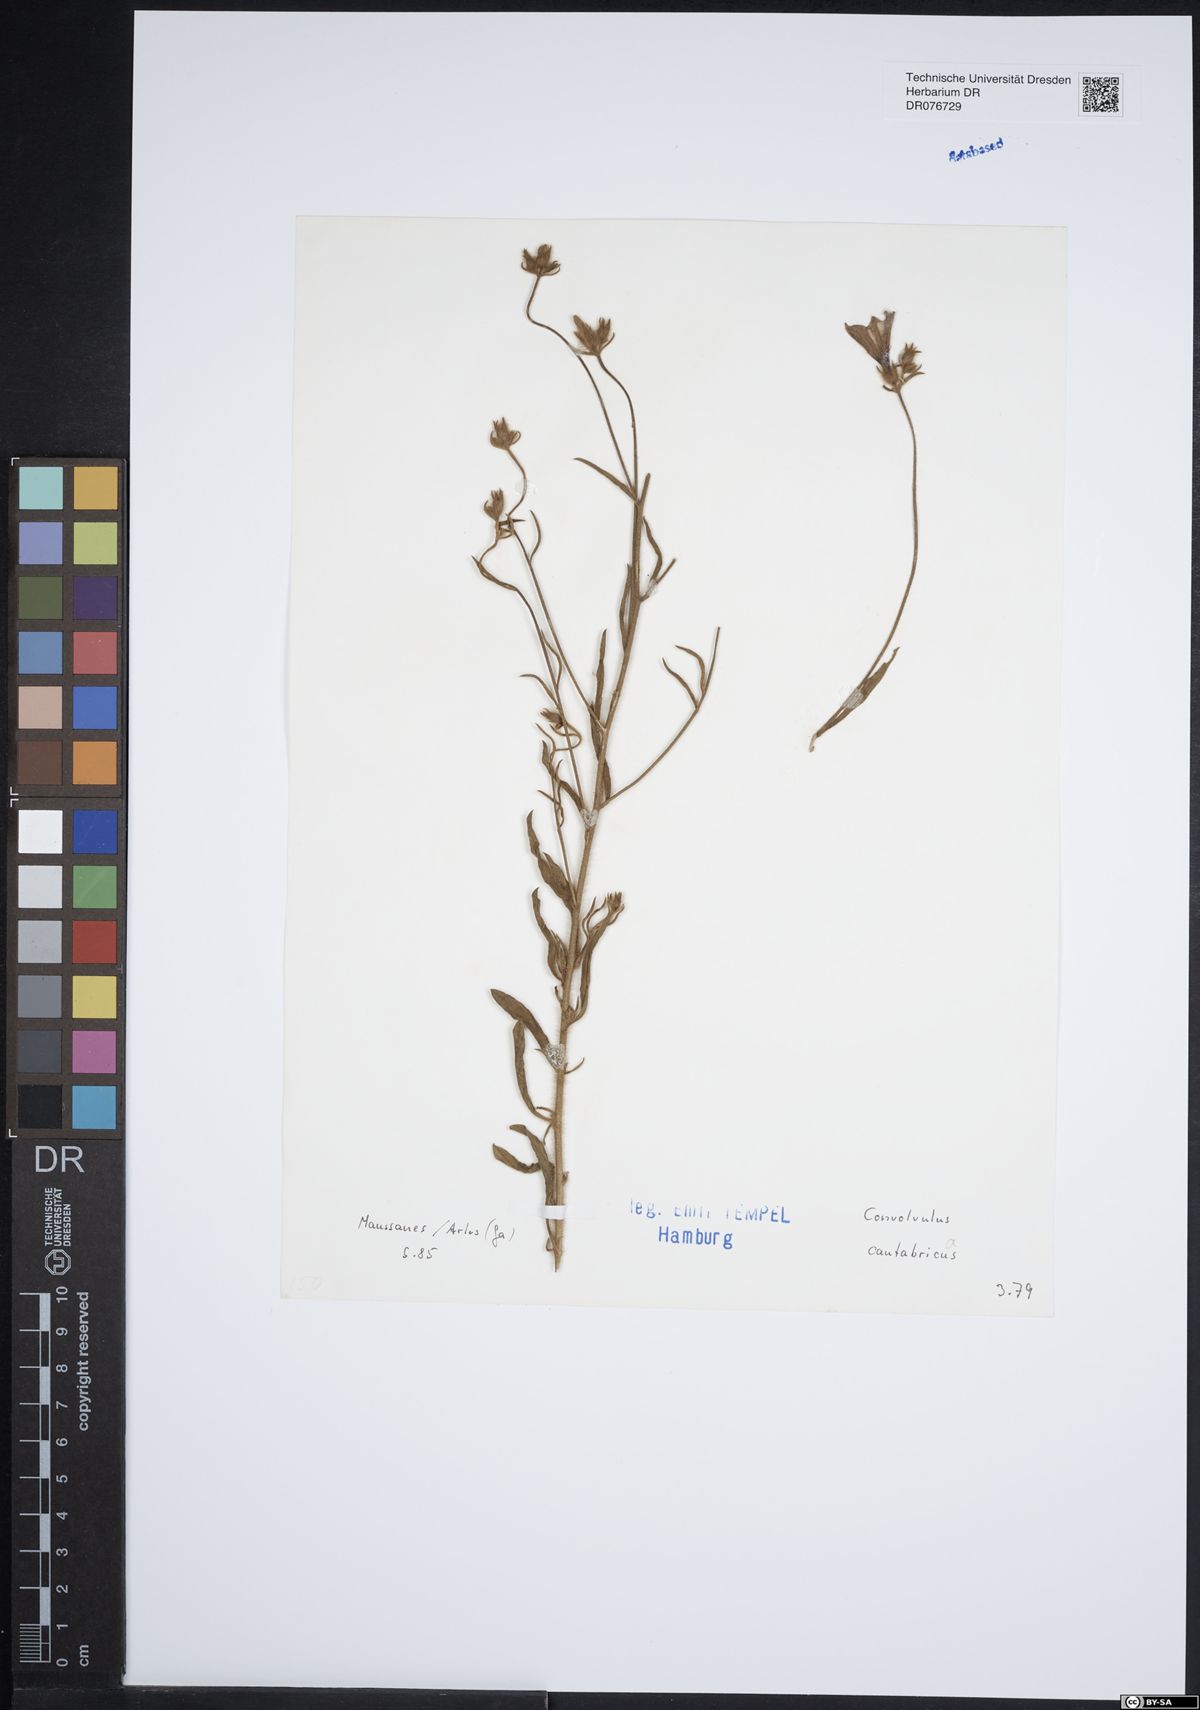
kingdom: Plantae
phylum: Tracheophyta
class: Magnoliopsida
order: Solanales
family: Convolvulaceae
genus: Convolvulus
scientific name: Convolvulus cantabrica
